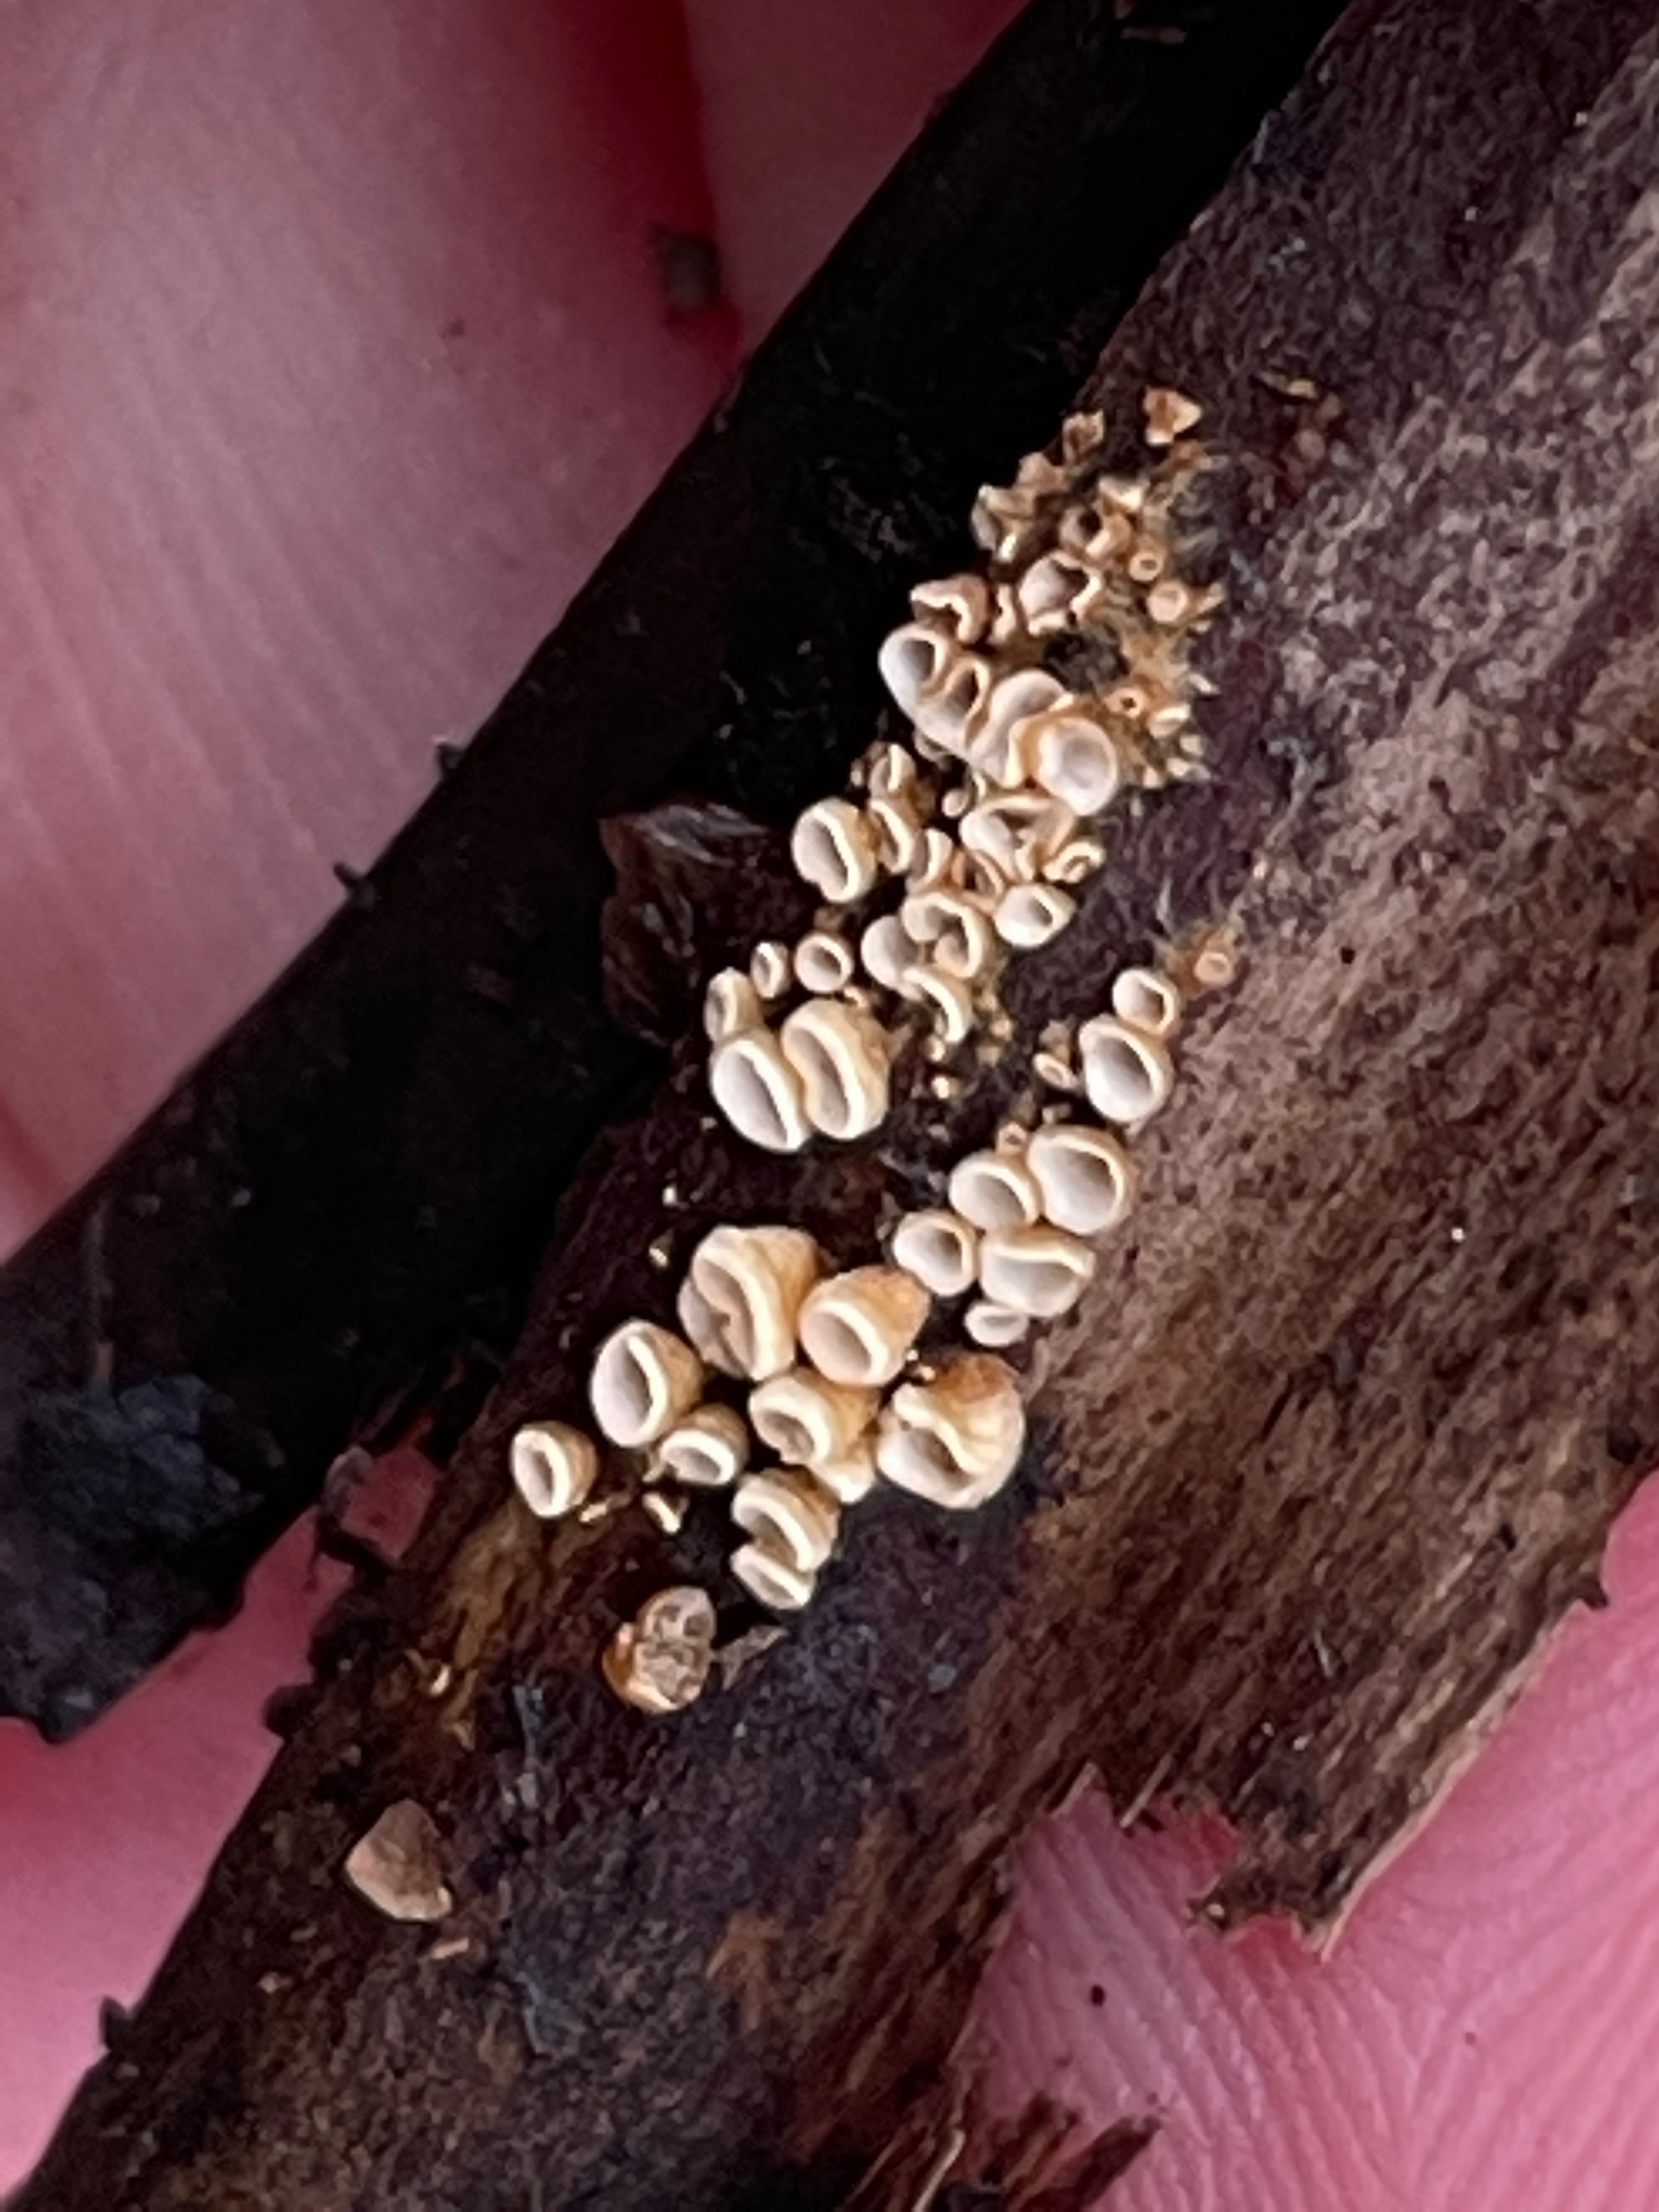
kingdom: Fungi
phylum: Basidiomycota
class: Agaricomycetes
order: Agaricales
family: Niaceae
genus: Woldmaria
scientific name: Woldmaria filicina
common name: bregnerør
